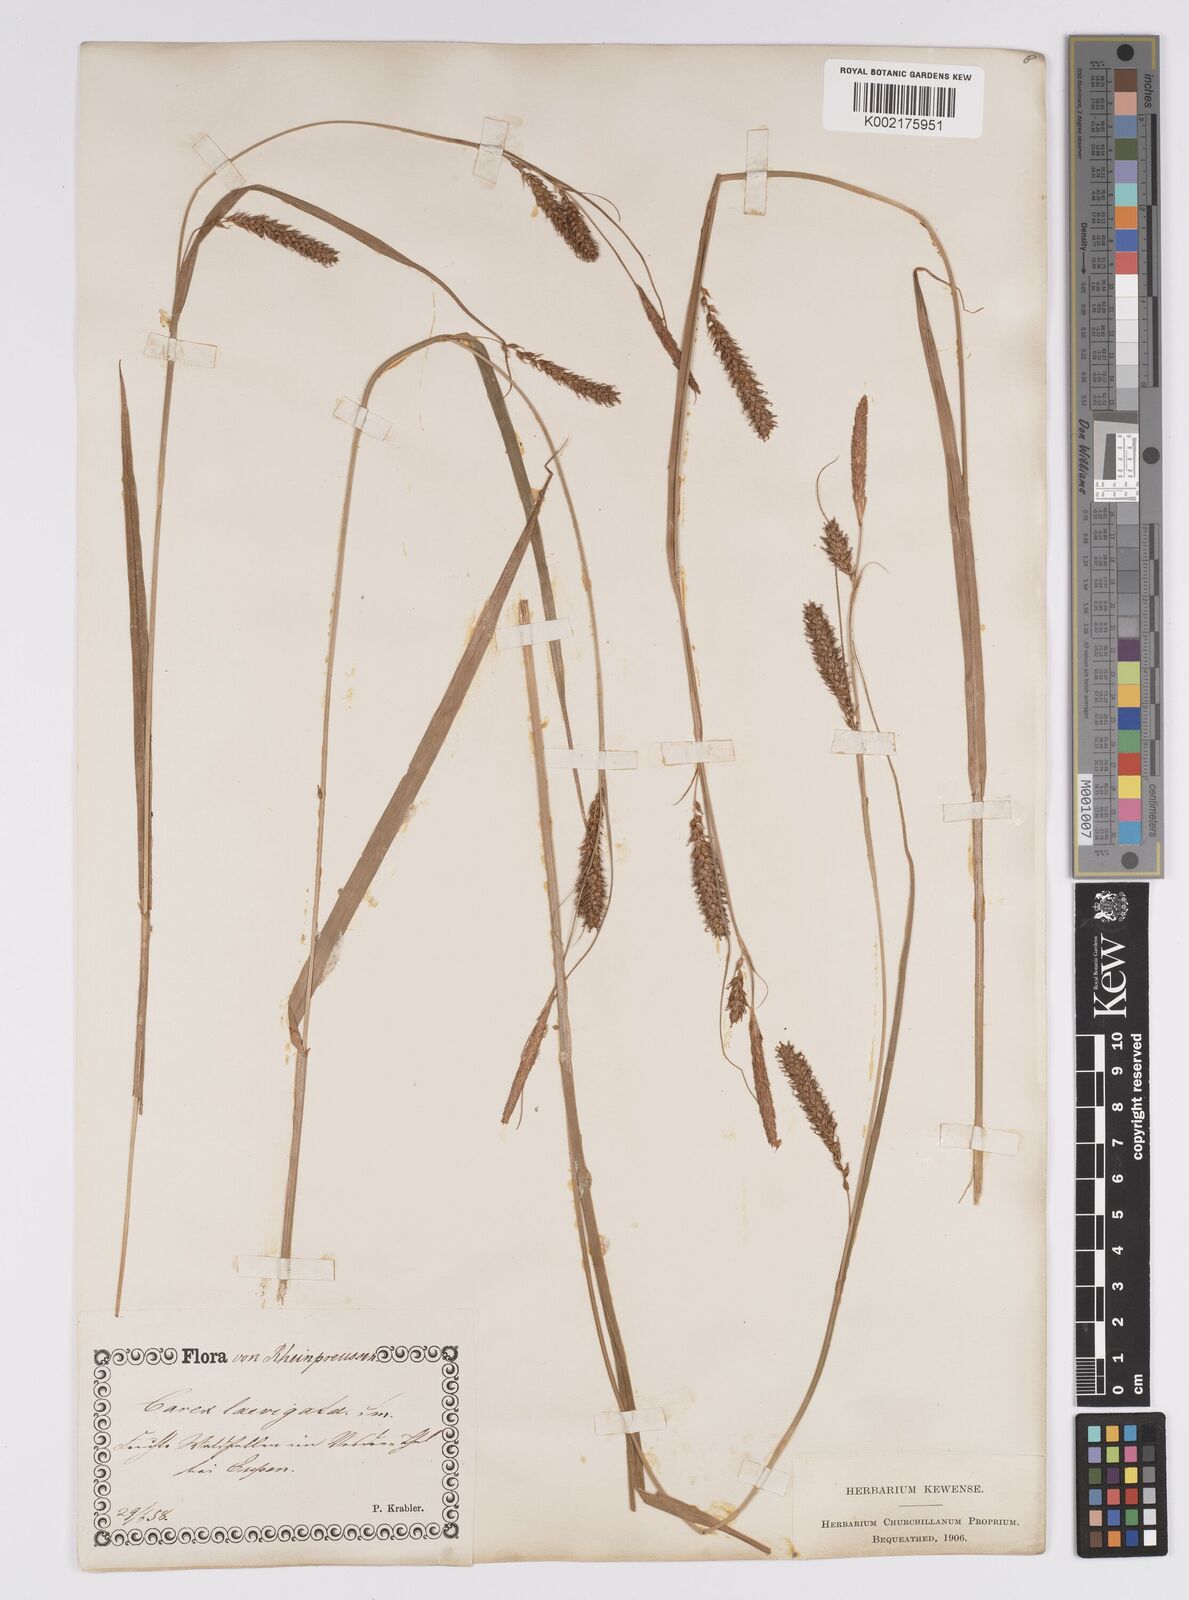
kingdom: Plantae
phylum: Tracheophyta
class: Liliopsida
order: Poales
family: Cyperaceae
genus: Carex
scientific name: Carex laevigata
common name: Smooth-stalked sedge
